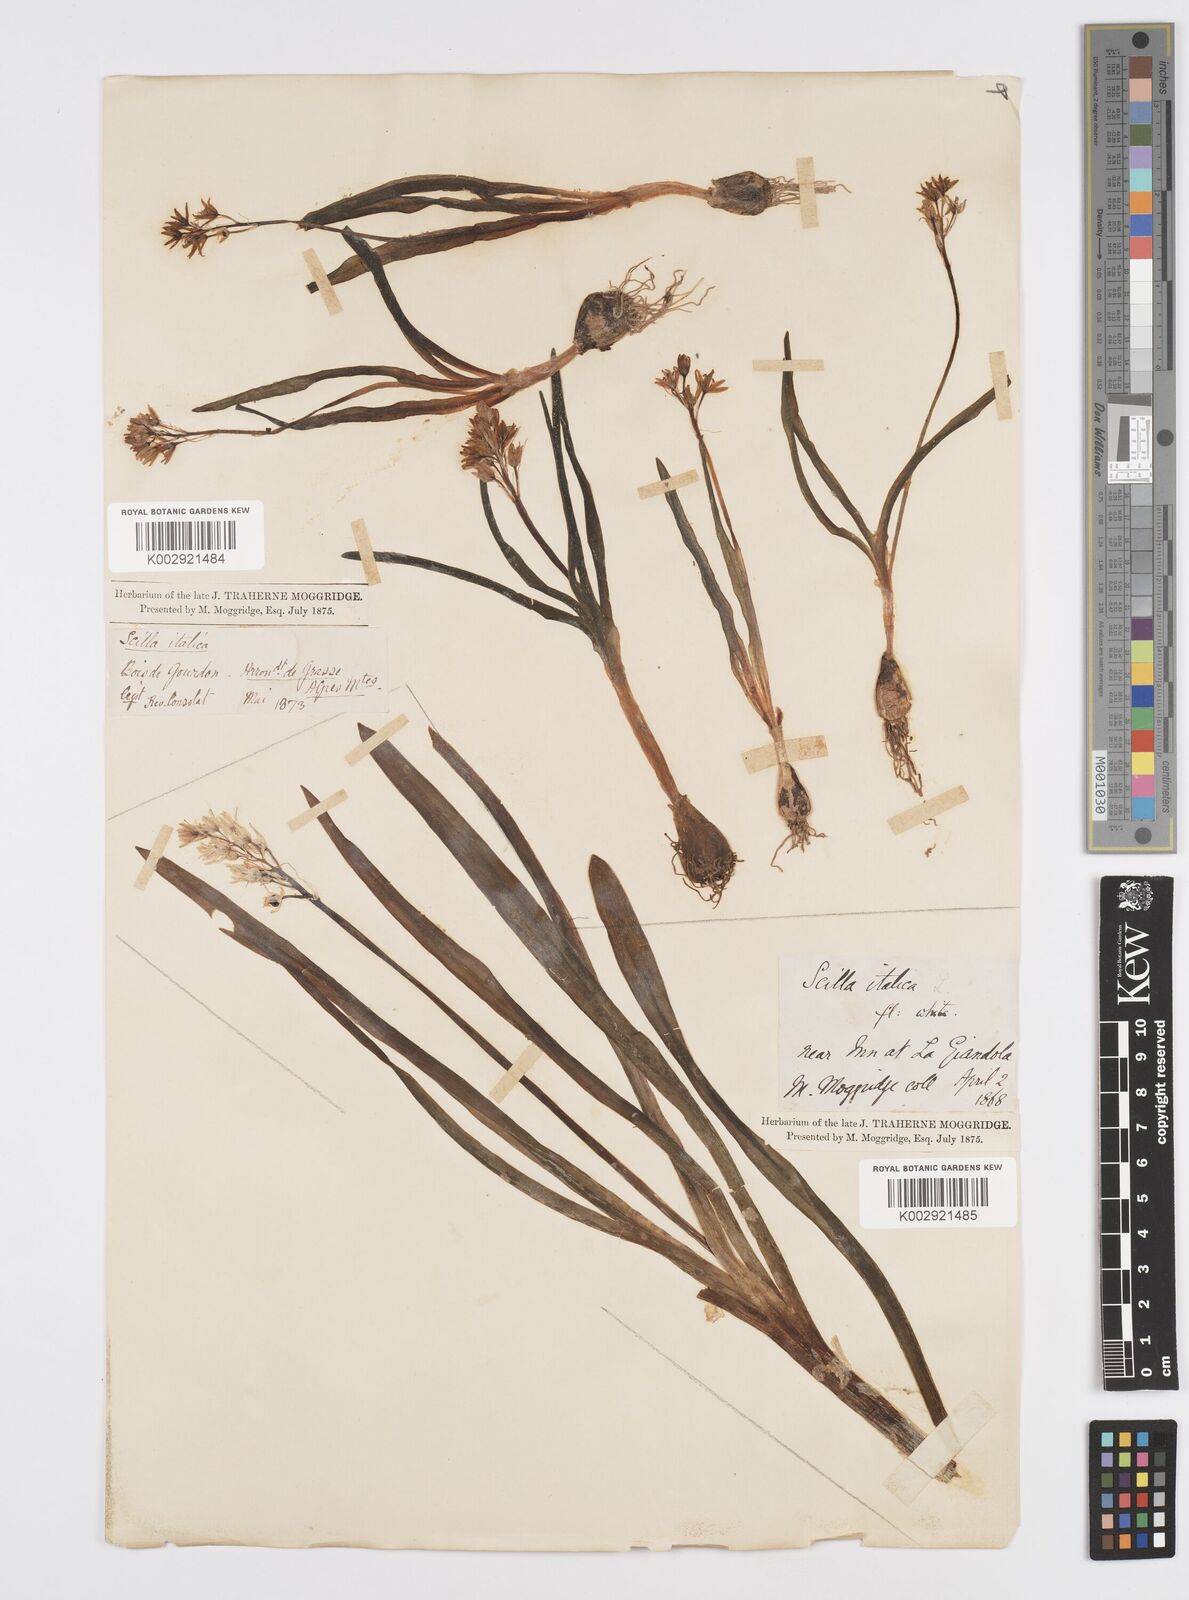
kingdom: Plantae
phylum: Tracheophyta
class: Liliopsida
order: Asparagales
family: Asparagaceae
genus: Hyacinthoides
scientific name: Hyacinthoides italica
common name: Italian bluebell
